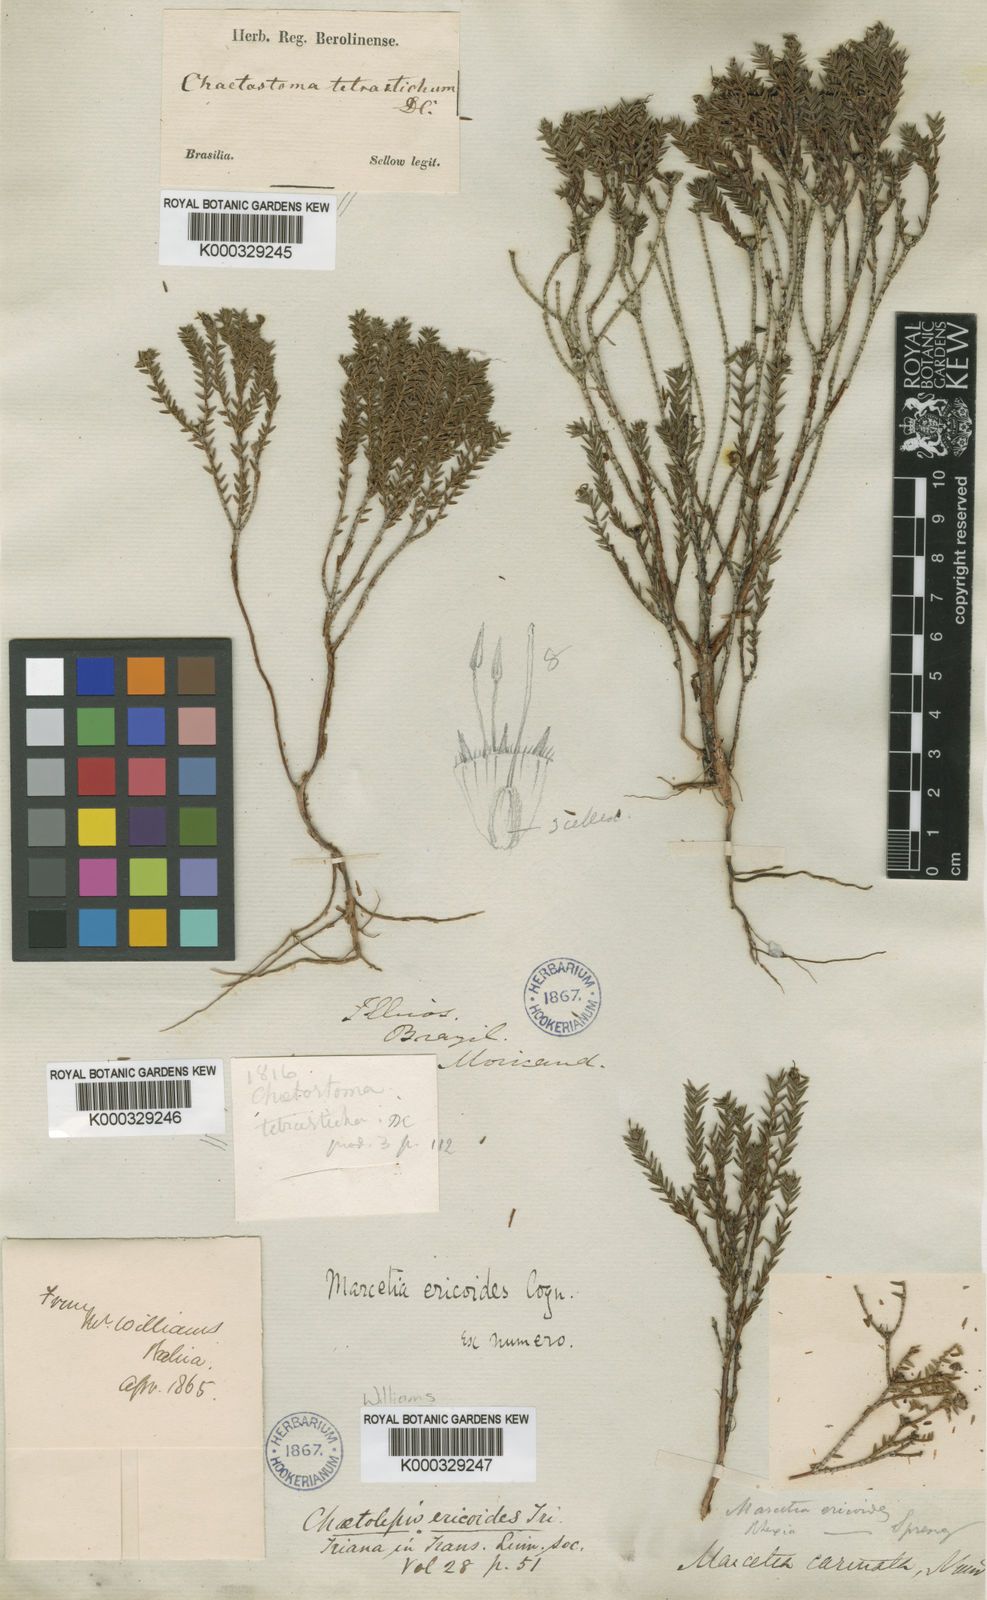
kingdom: Plantae
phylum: Tracheophyta
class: Magnoliopsida
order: Myrtales
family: Melastomataceae
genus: Marcetia
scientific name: Marcetia ericoides
